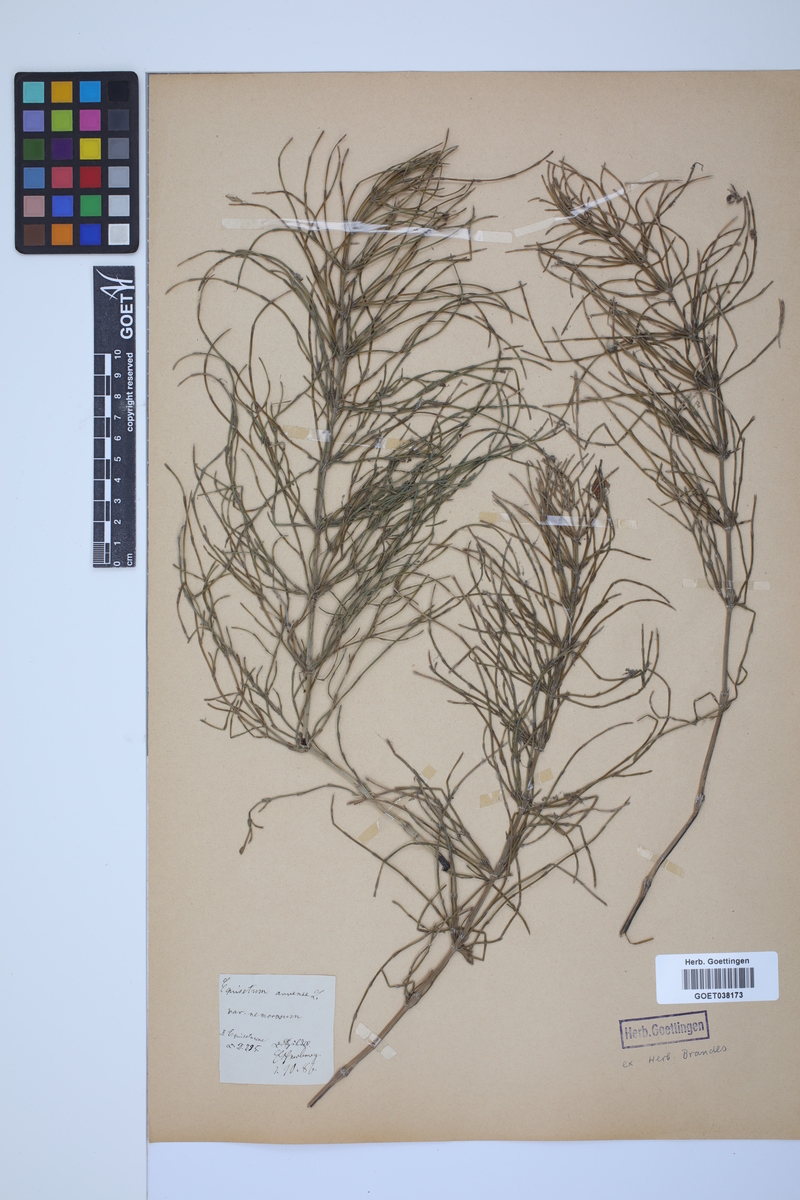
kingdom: Plantae
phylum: Tracheophyta
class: Polypodiopsida
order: Equisetales
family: Equisetaceae
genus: Equisetum
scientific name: Equisetum arvense
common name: Field horsetail
